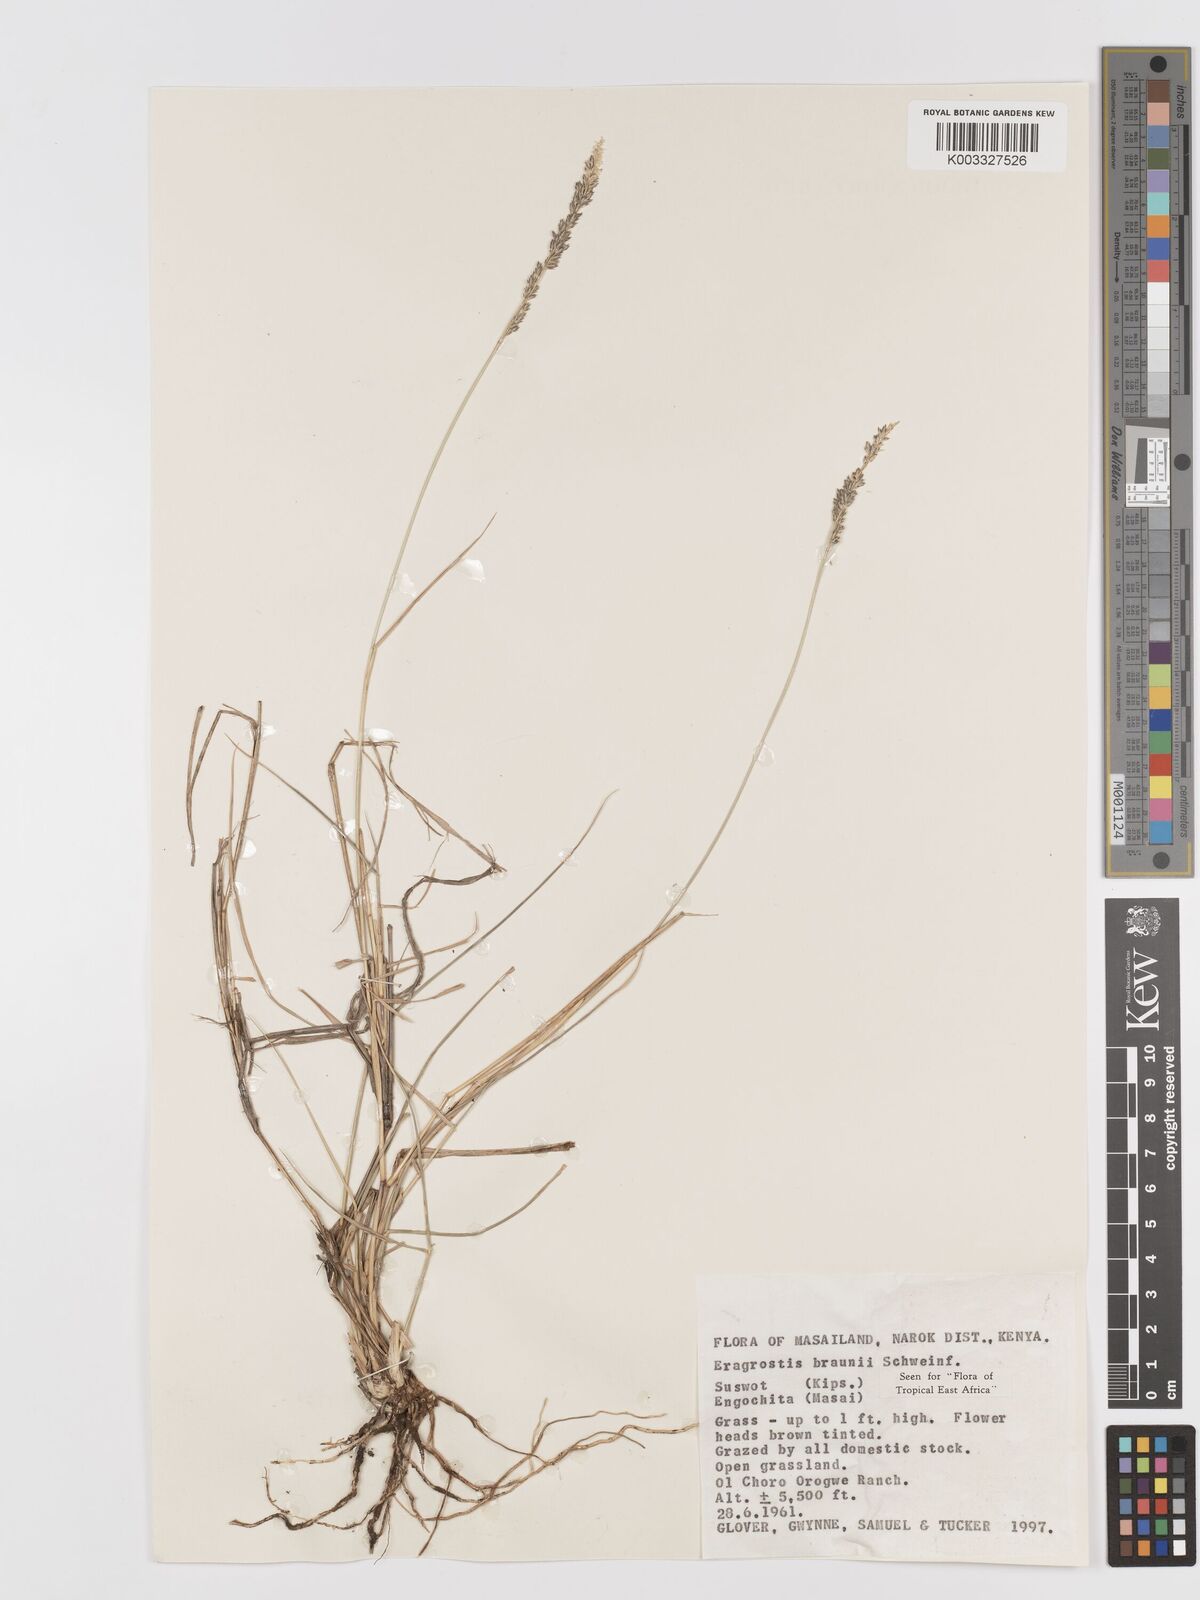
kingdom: Plantae
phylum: Tracheophyta
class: Liliopsida
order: Poales
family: Poaceae
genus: Eragrostis
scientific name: Eragrostis braunii
